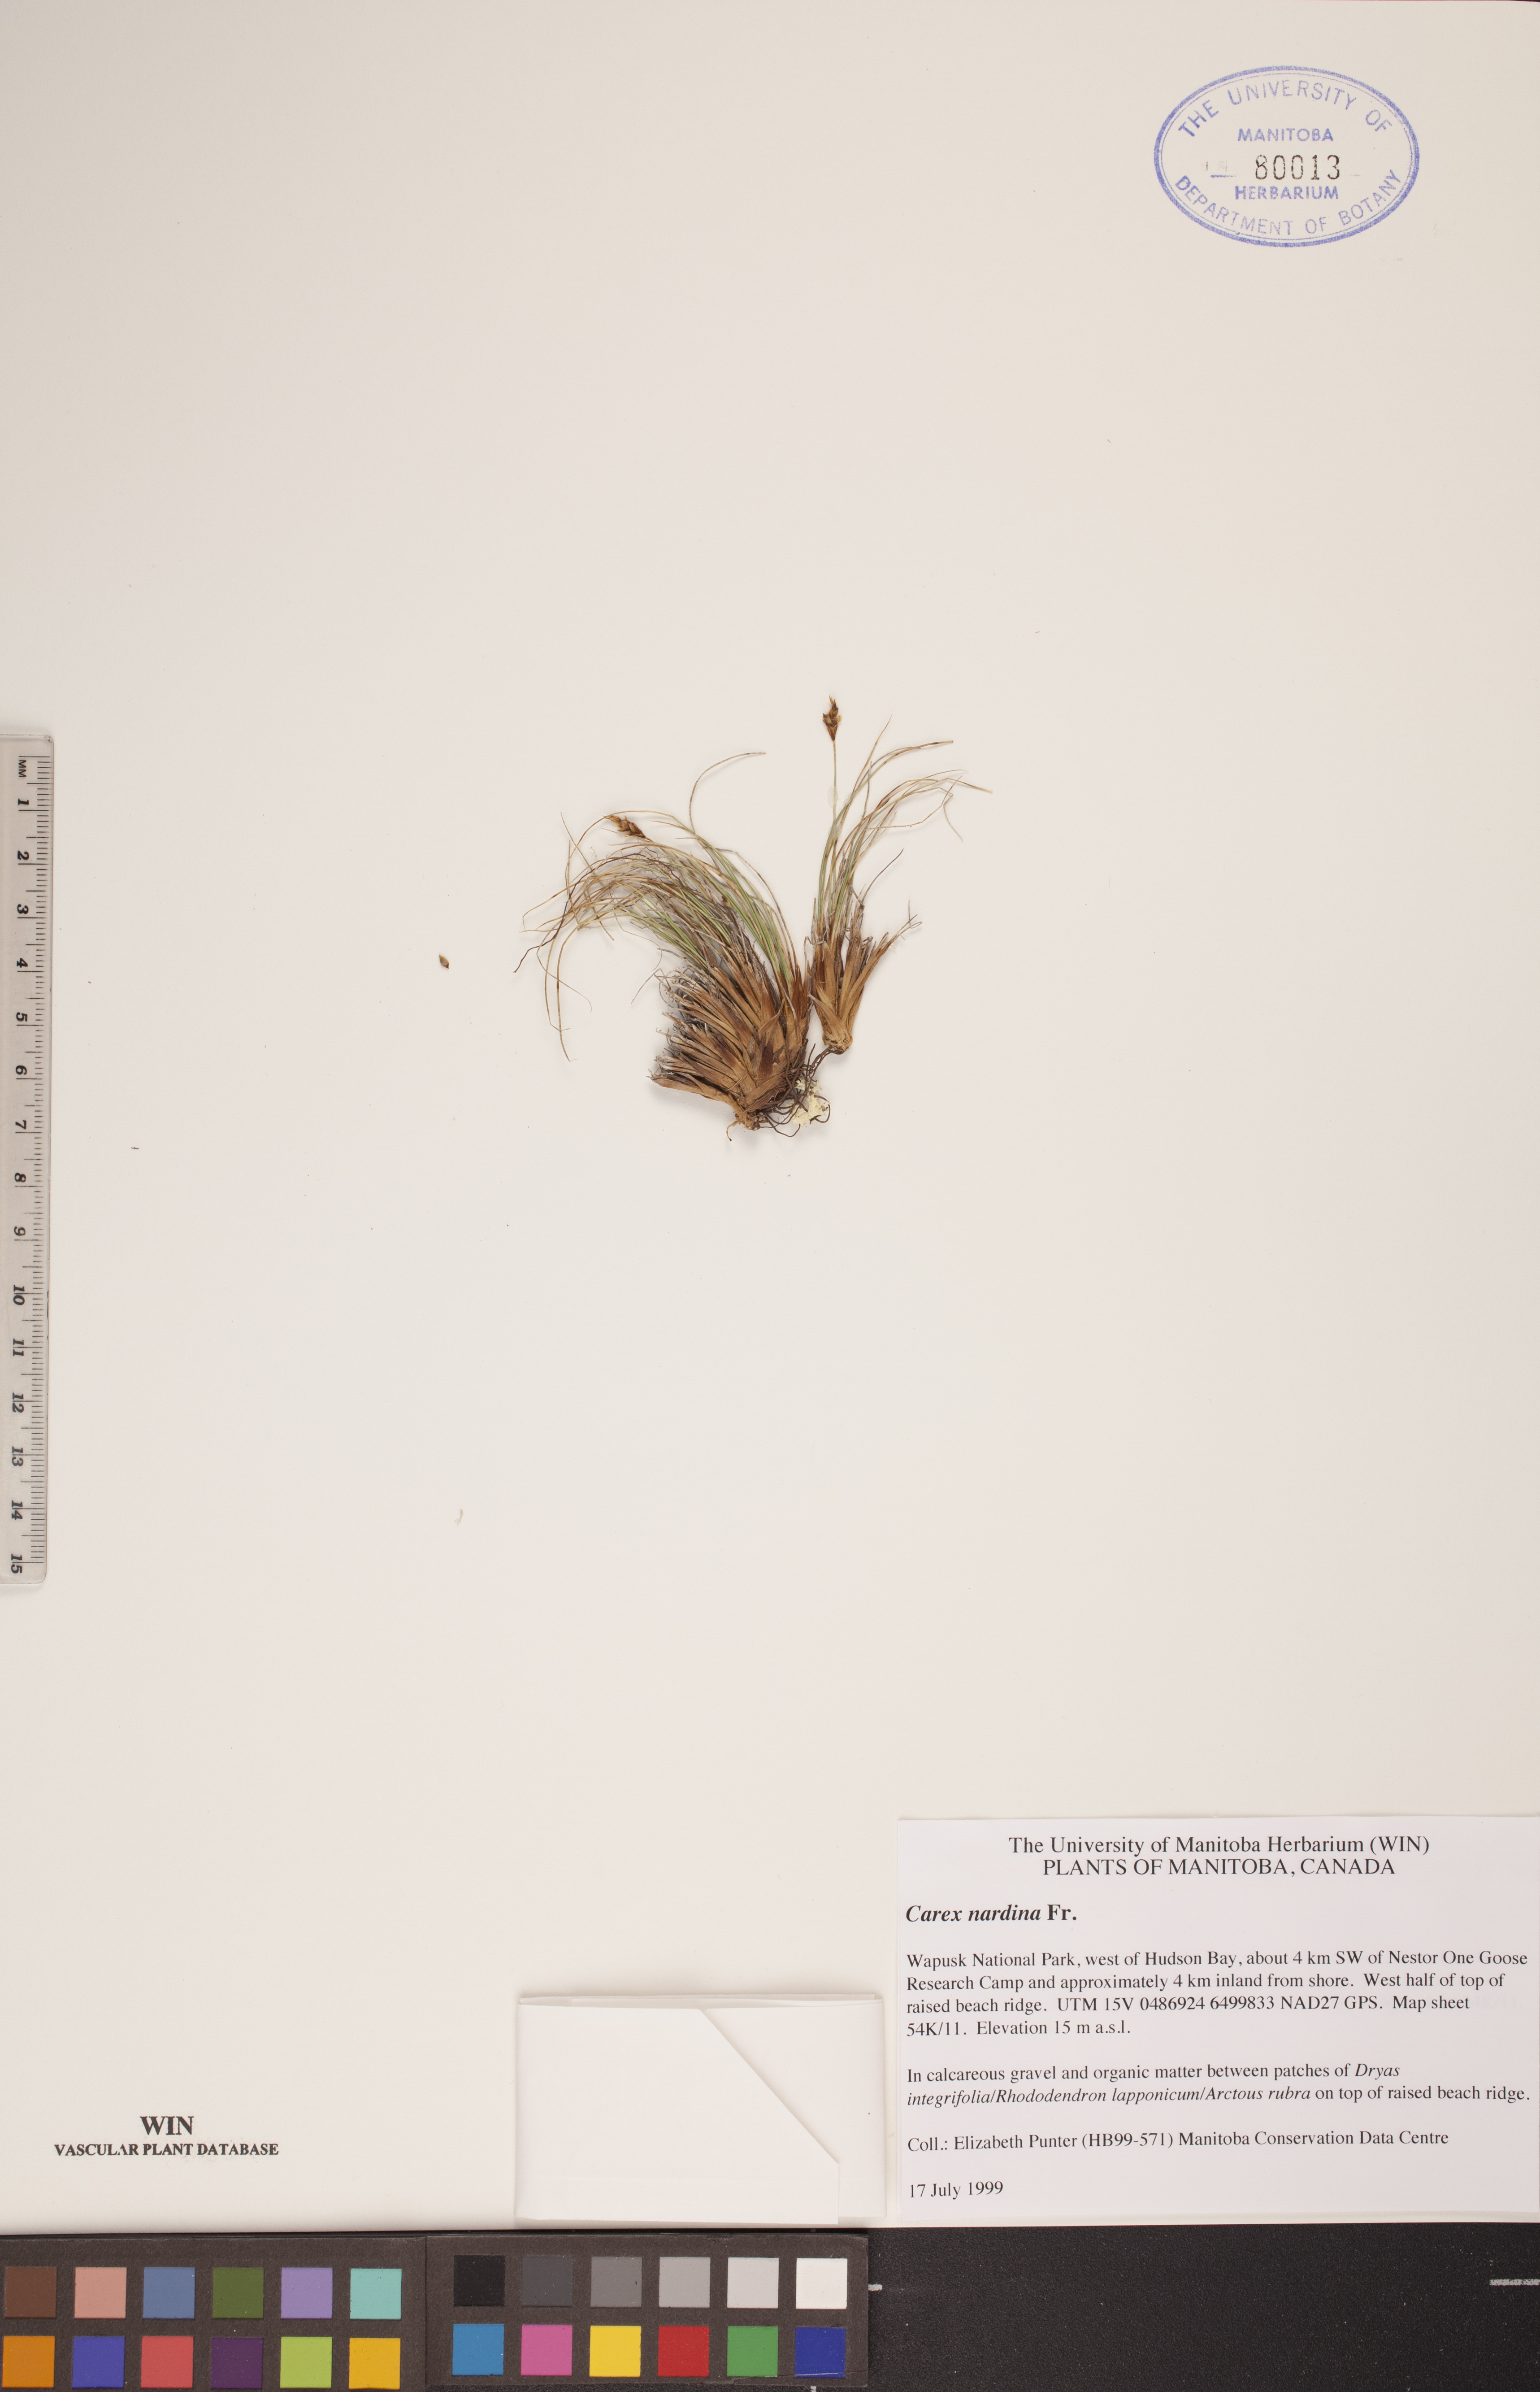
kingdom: Plantae
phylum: Tracheophyta
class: Liliopsida
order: Poales
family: Cyperaceae
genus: Carex
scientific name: Carex nardina
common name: Nard sedge
